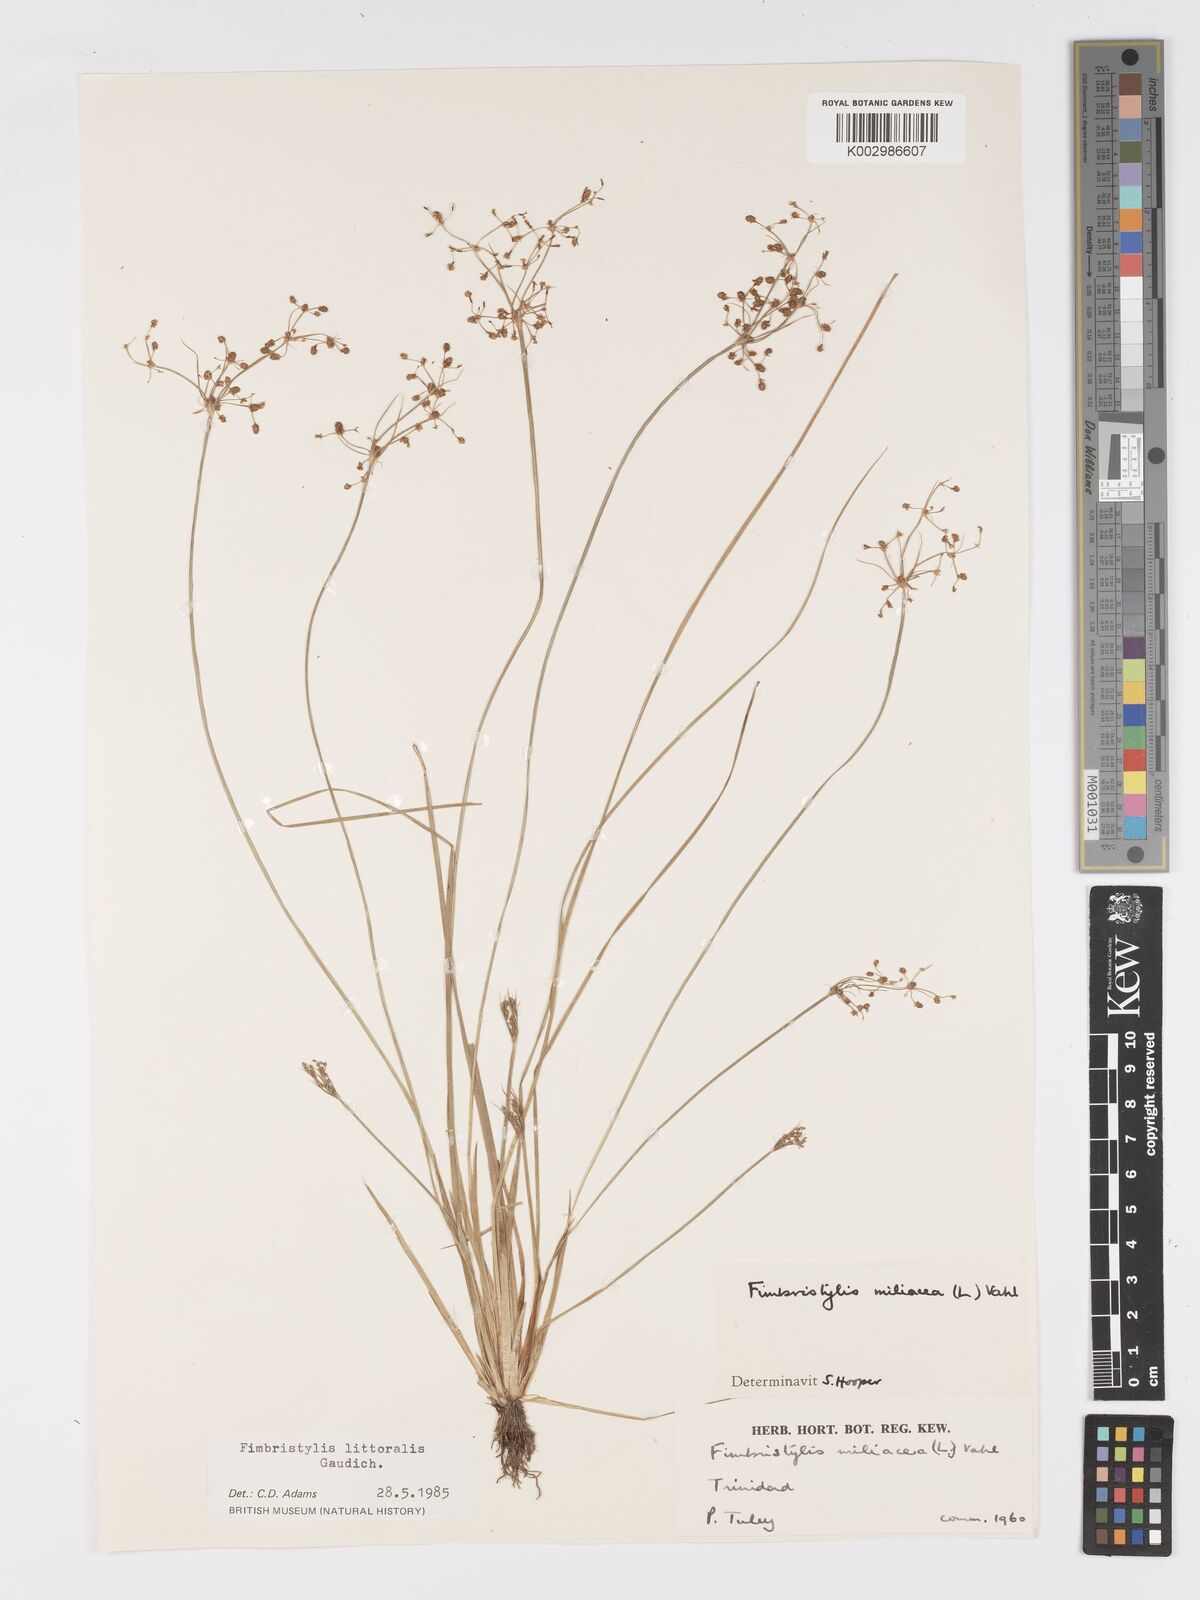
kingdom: Plantae
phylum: Tracheophyta
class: Liliopsida
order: Poales
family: Cyperaceae
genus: Fimbristylis
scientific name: Fimbristylis littoralis
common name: Fimbry
